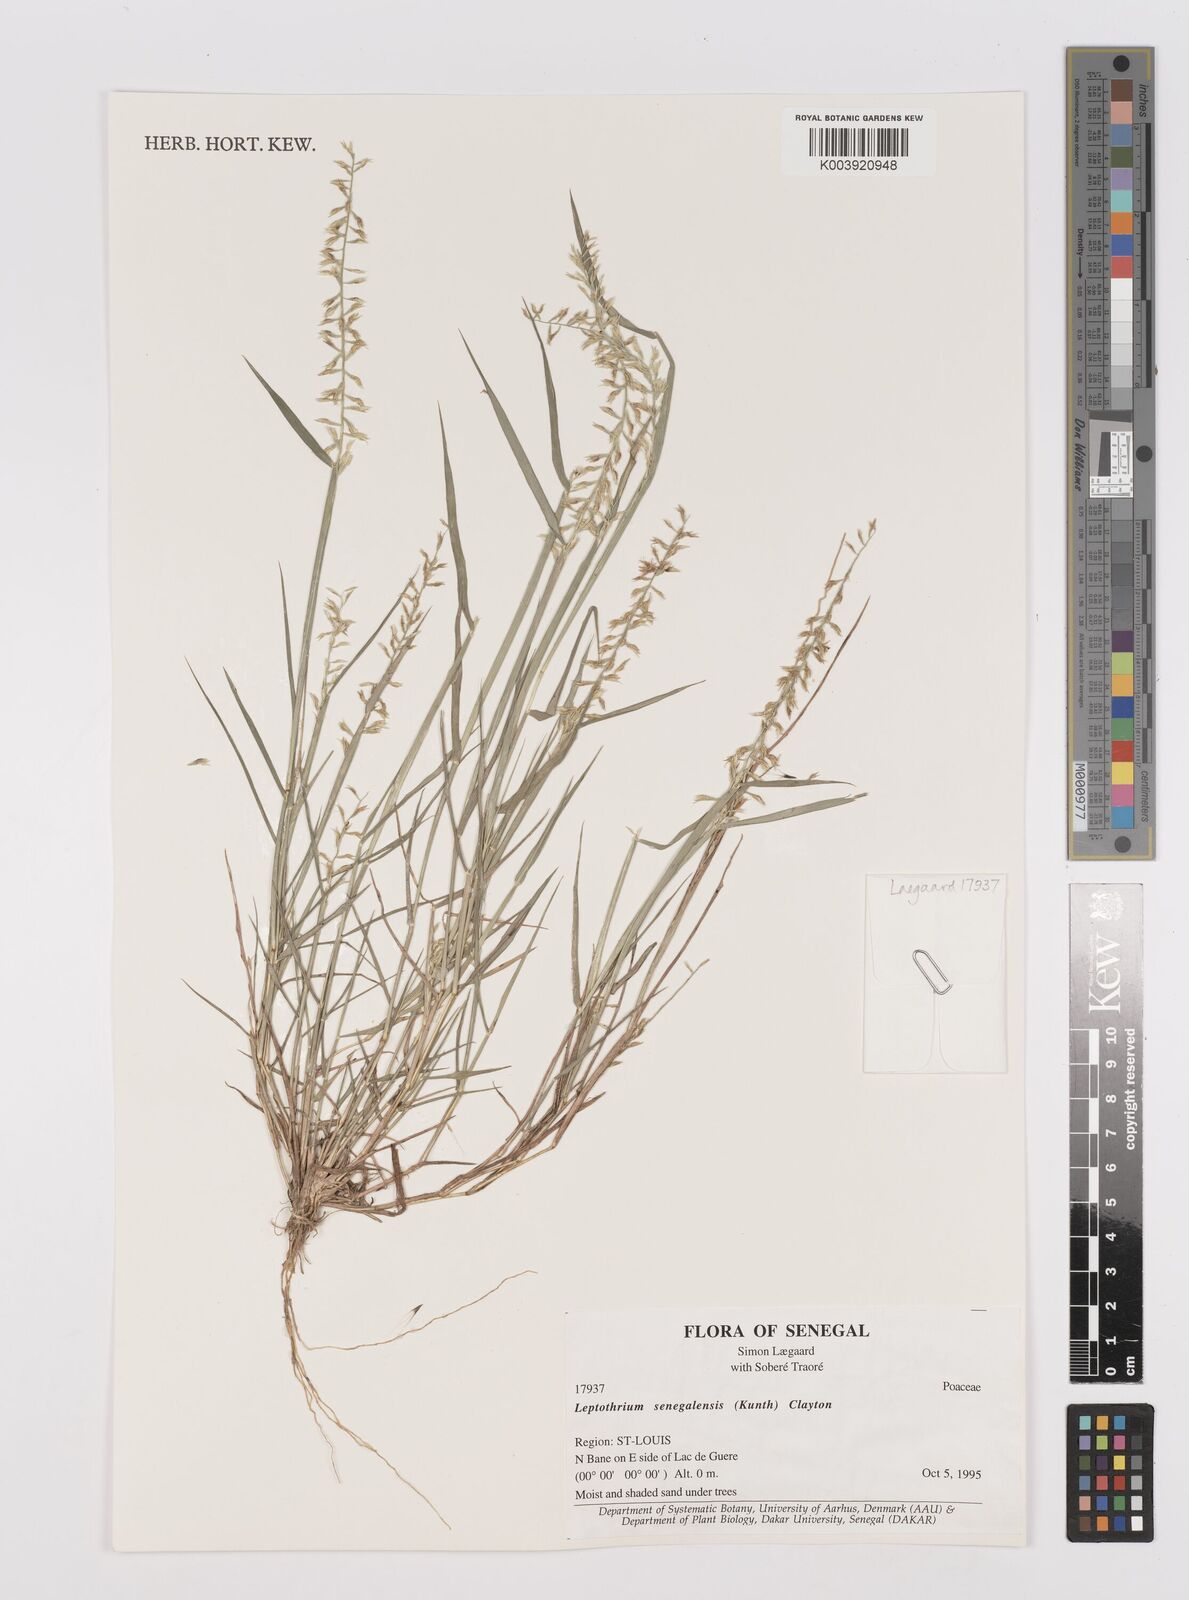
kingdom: Plantae
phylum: Tracheophyta
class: Liliopsida
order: Poales
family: Poaceae
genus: Leptothrium
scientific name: Leptothrium senegalense
